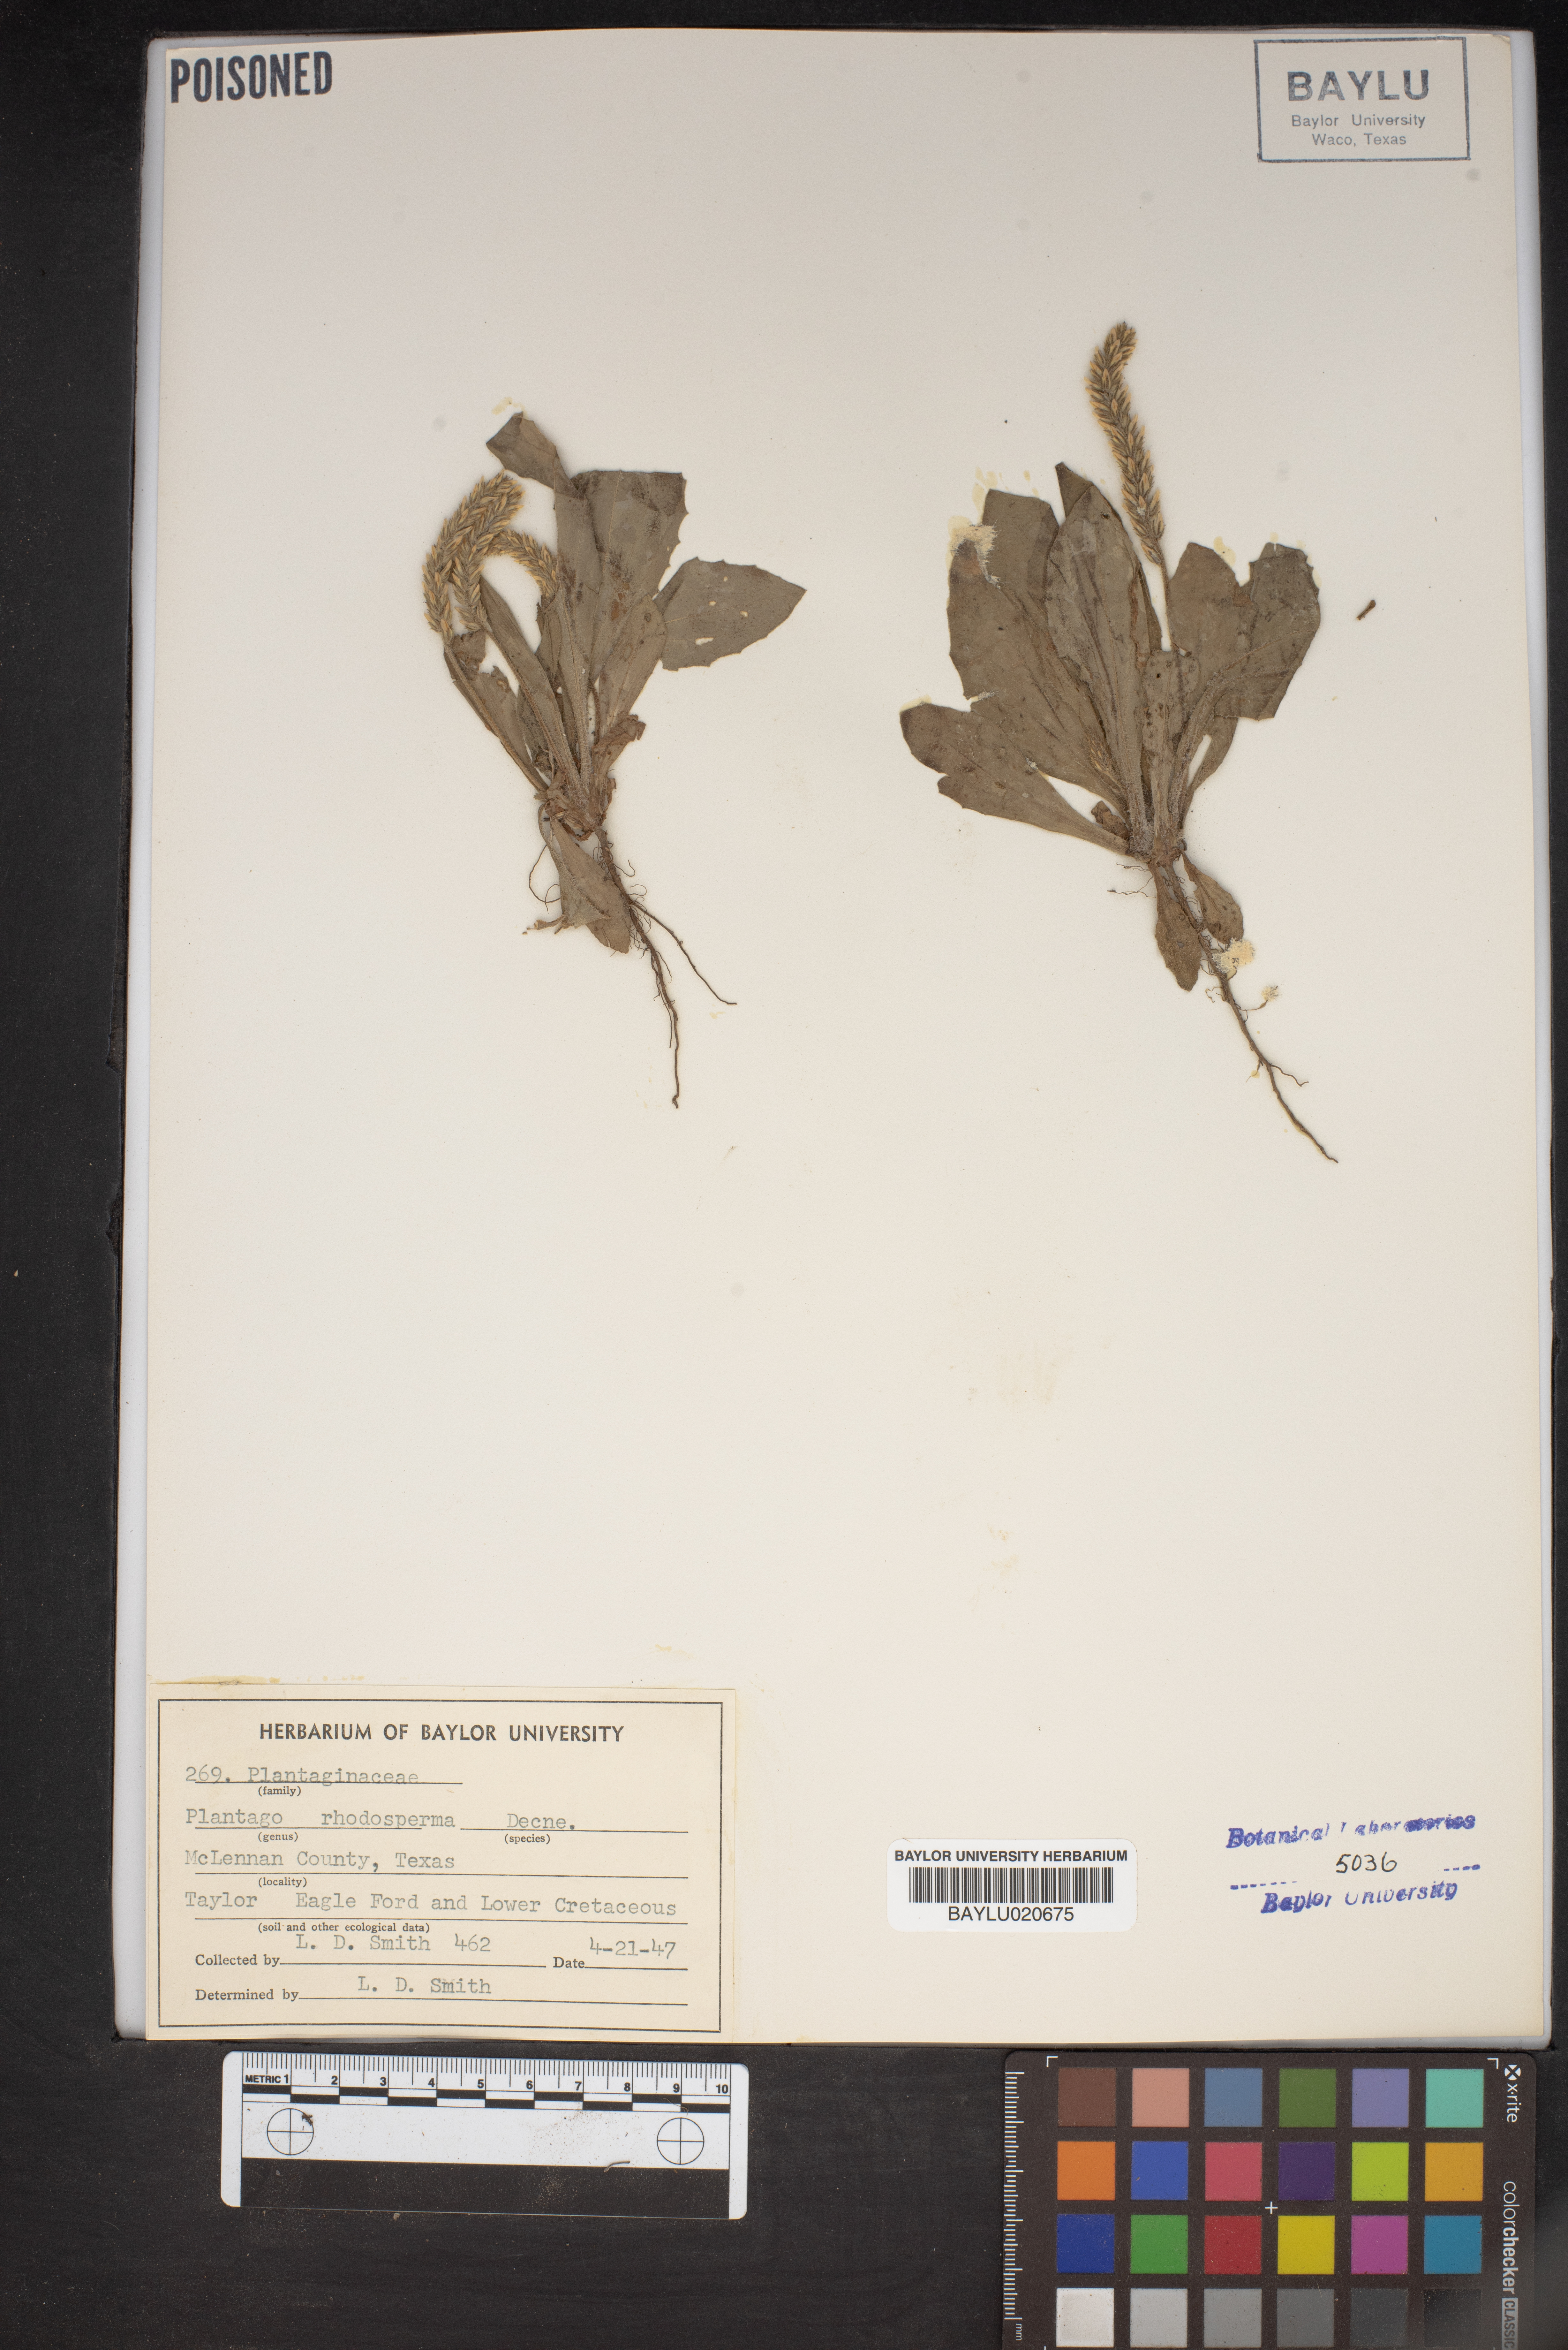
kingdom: Plantae
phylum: Tracheophyta
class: Magnoliopsida
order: Lamiales
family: Plantaginaceae
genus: Plantago
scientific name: Plantago rhodosperma
